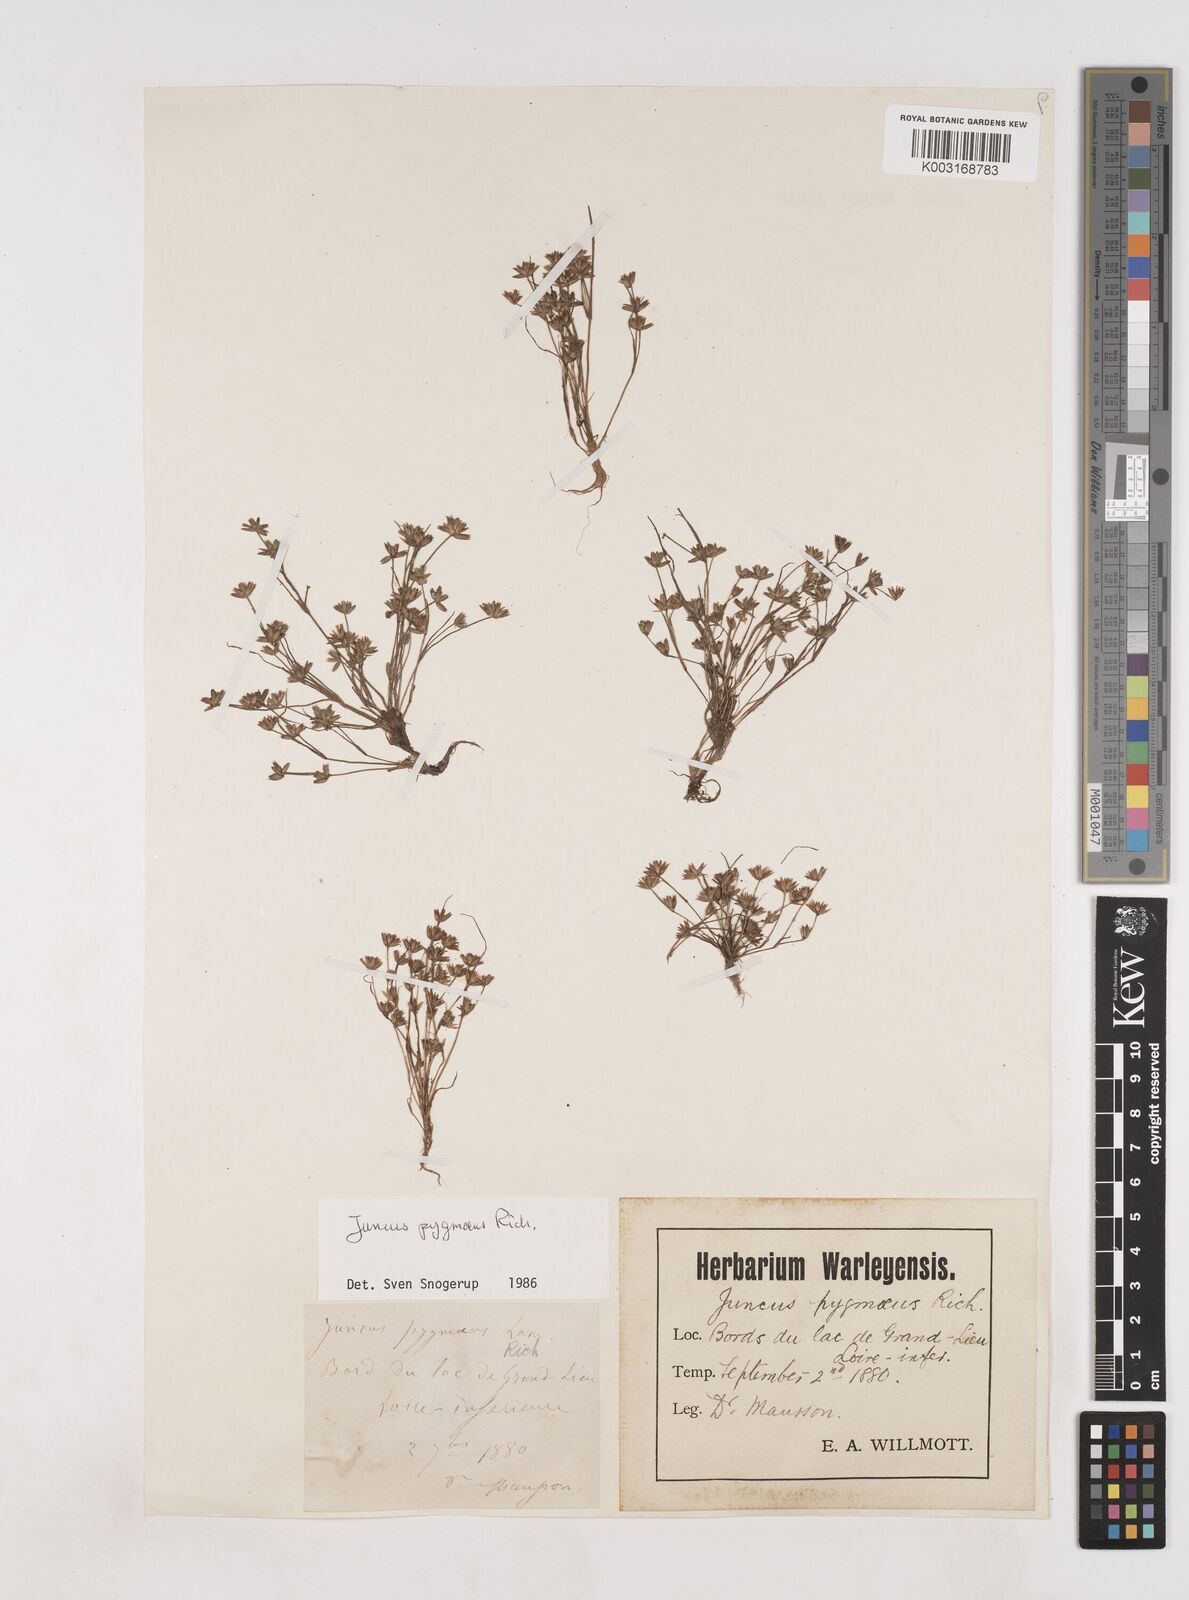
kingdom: Plantae
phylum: Tracheophyta
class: Liliopsida
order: Poales
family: Juncaceae
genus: Juncus
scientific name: Juncus pygmaeus
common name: Pigmy rush
